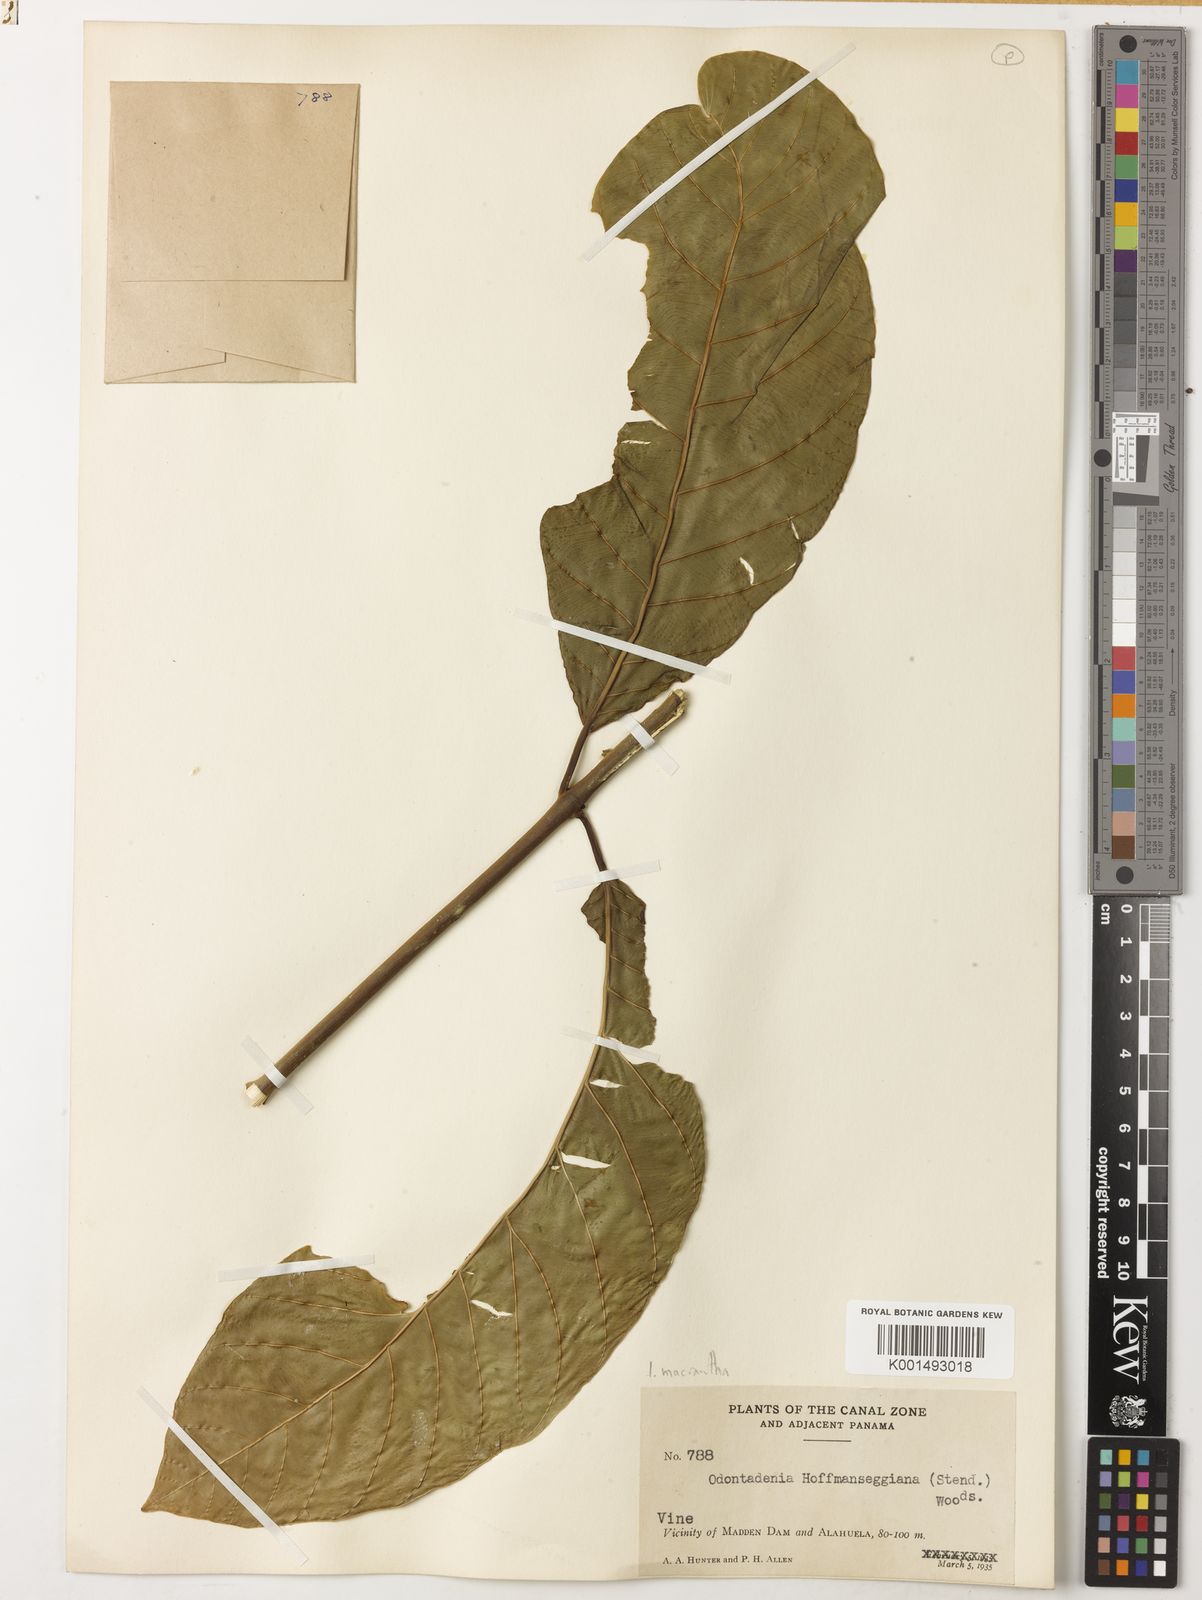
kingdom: Plantae
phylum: Tracheophyta
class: Magnoliopsida
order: Gentianales
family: Apocynaceae
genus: Odontadenia
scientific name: Odontadenia semidigyna
